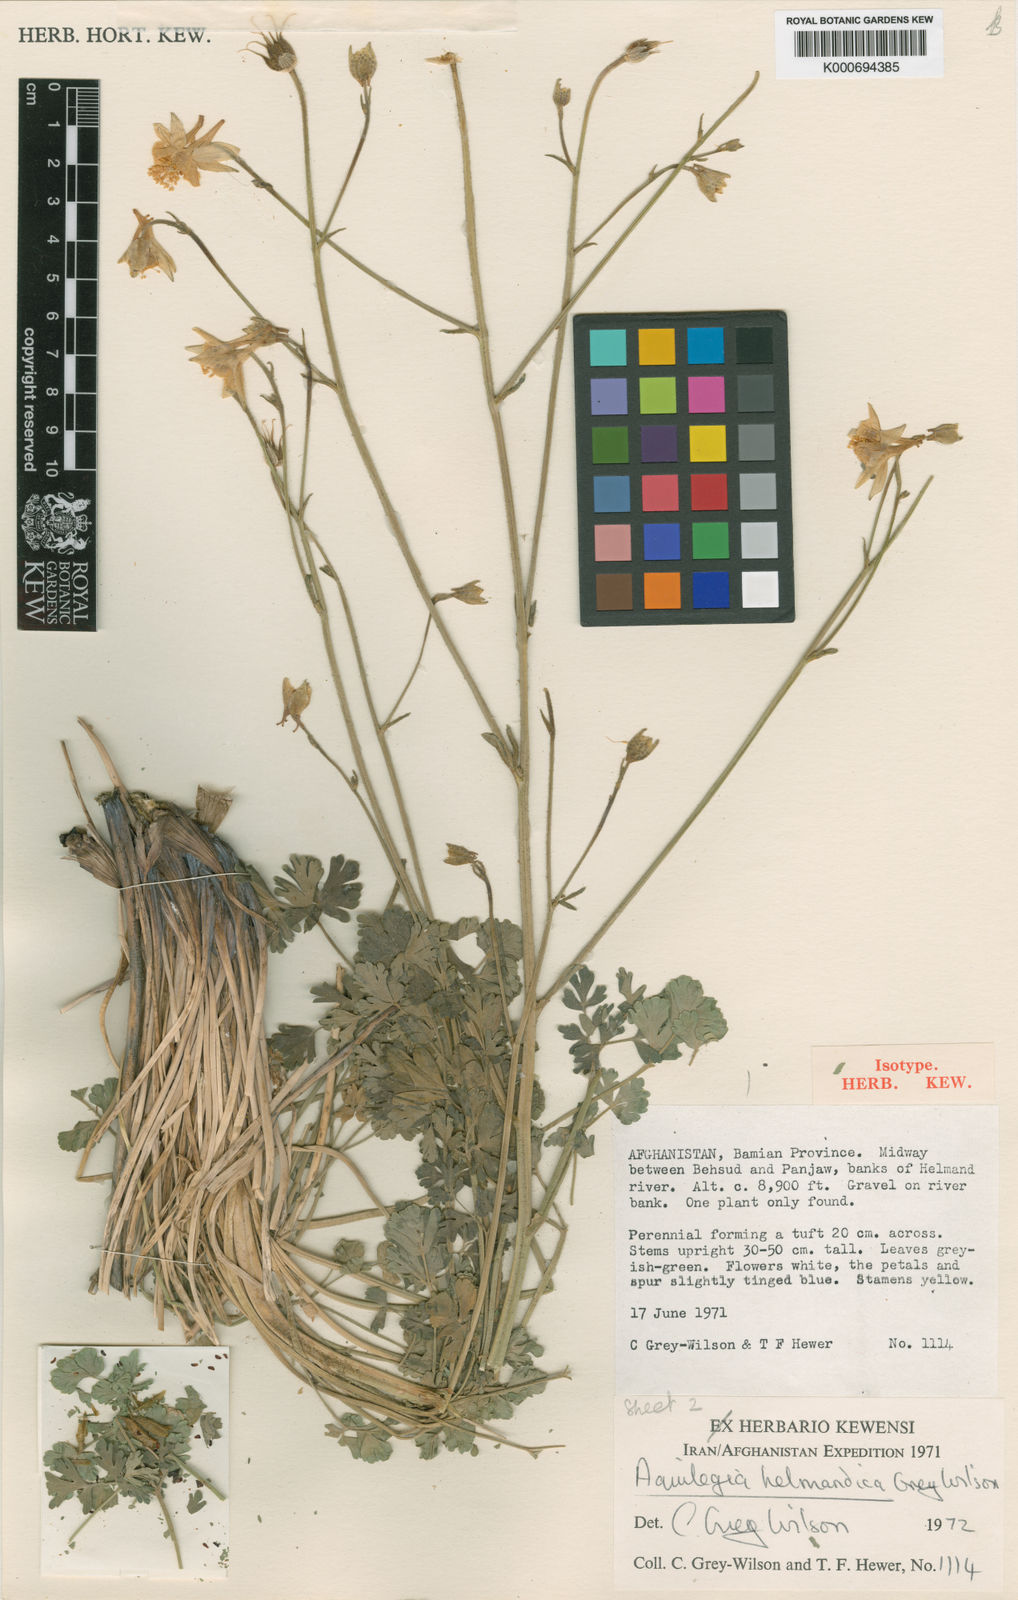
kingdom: Plantae
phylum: Tracheophyta
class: Magnoliopsida
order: Ranunculales
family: Ranunculaceae
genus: Aquilegia
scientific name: Aquilegia moorcroftiana
